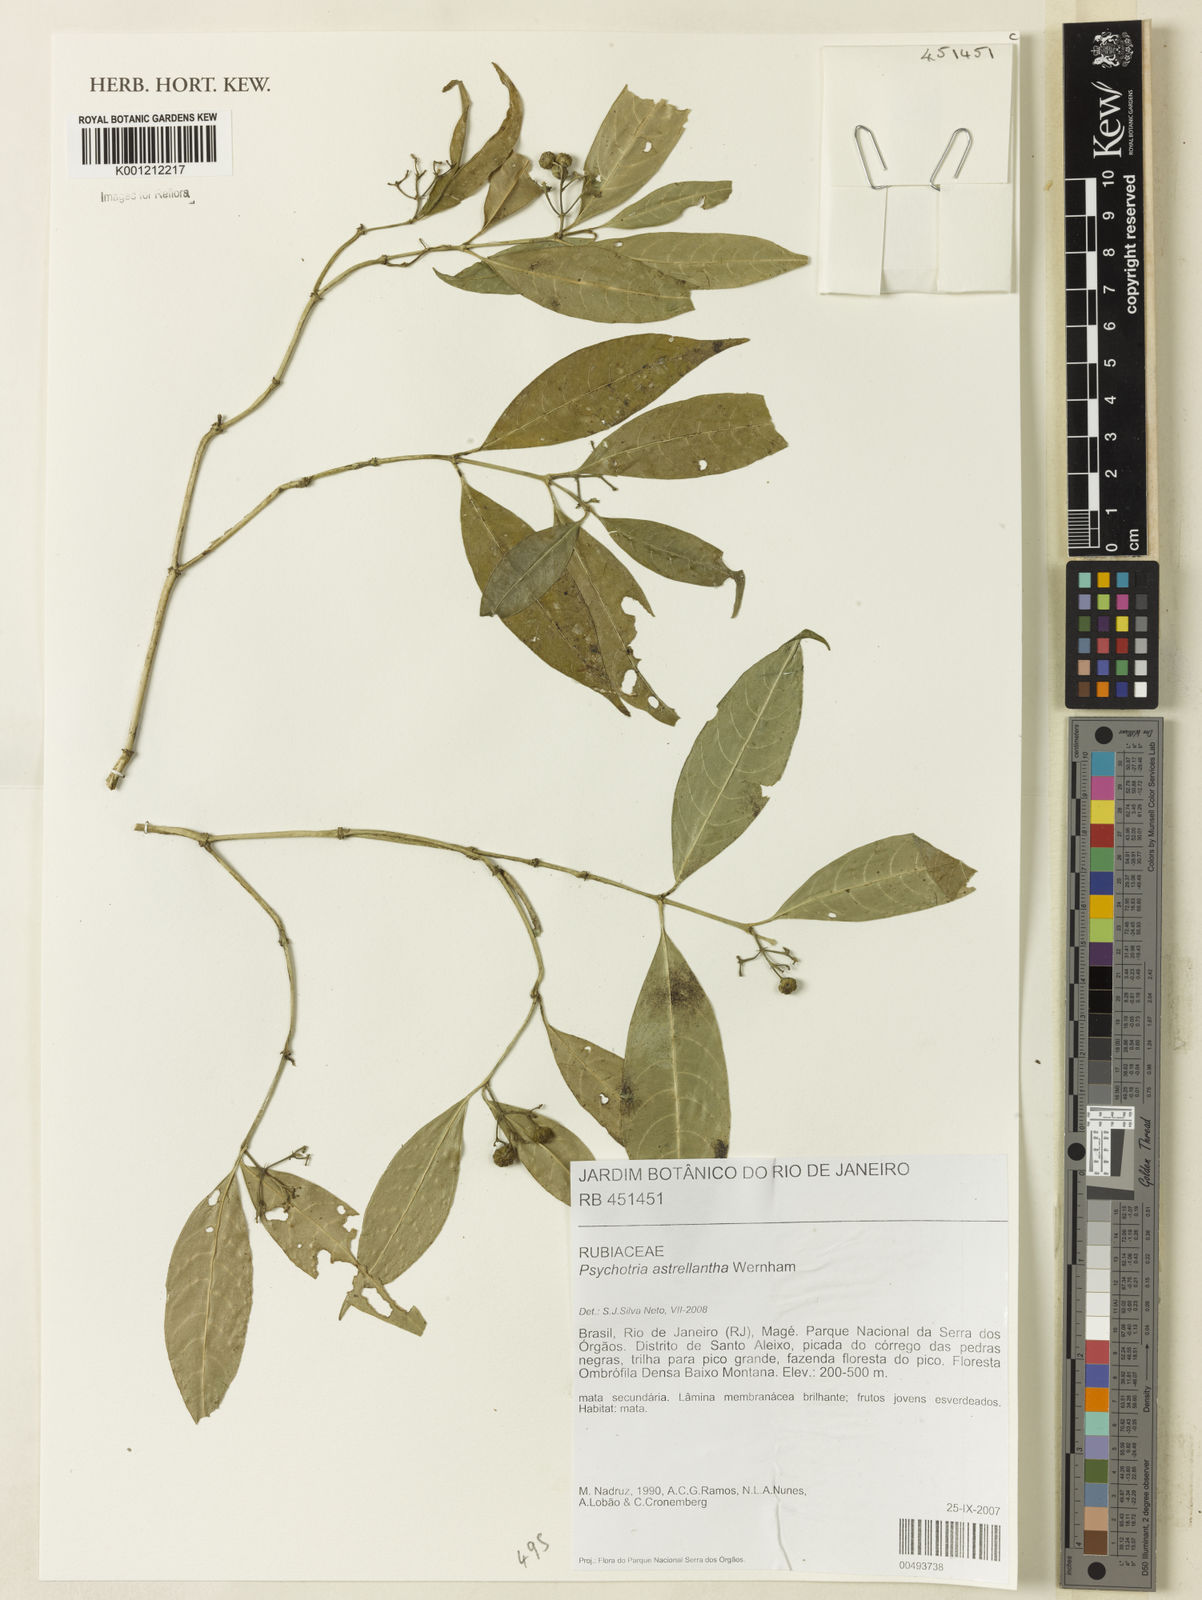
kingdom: Plantae
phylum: Tracheophyta
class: Magnoliopsida
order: Gentianales
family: Rubiaceae
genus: Eumachia
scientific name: Eumachia astrellantha
